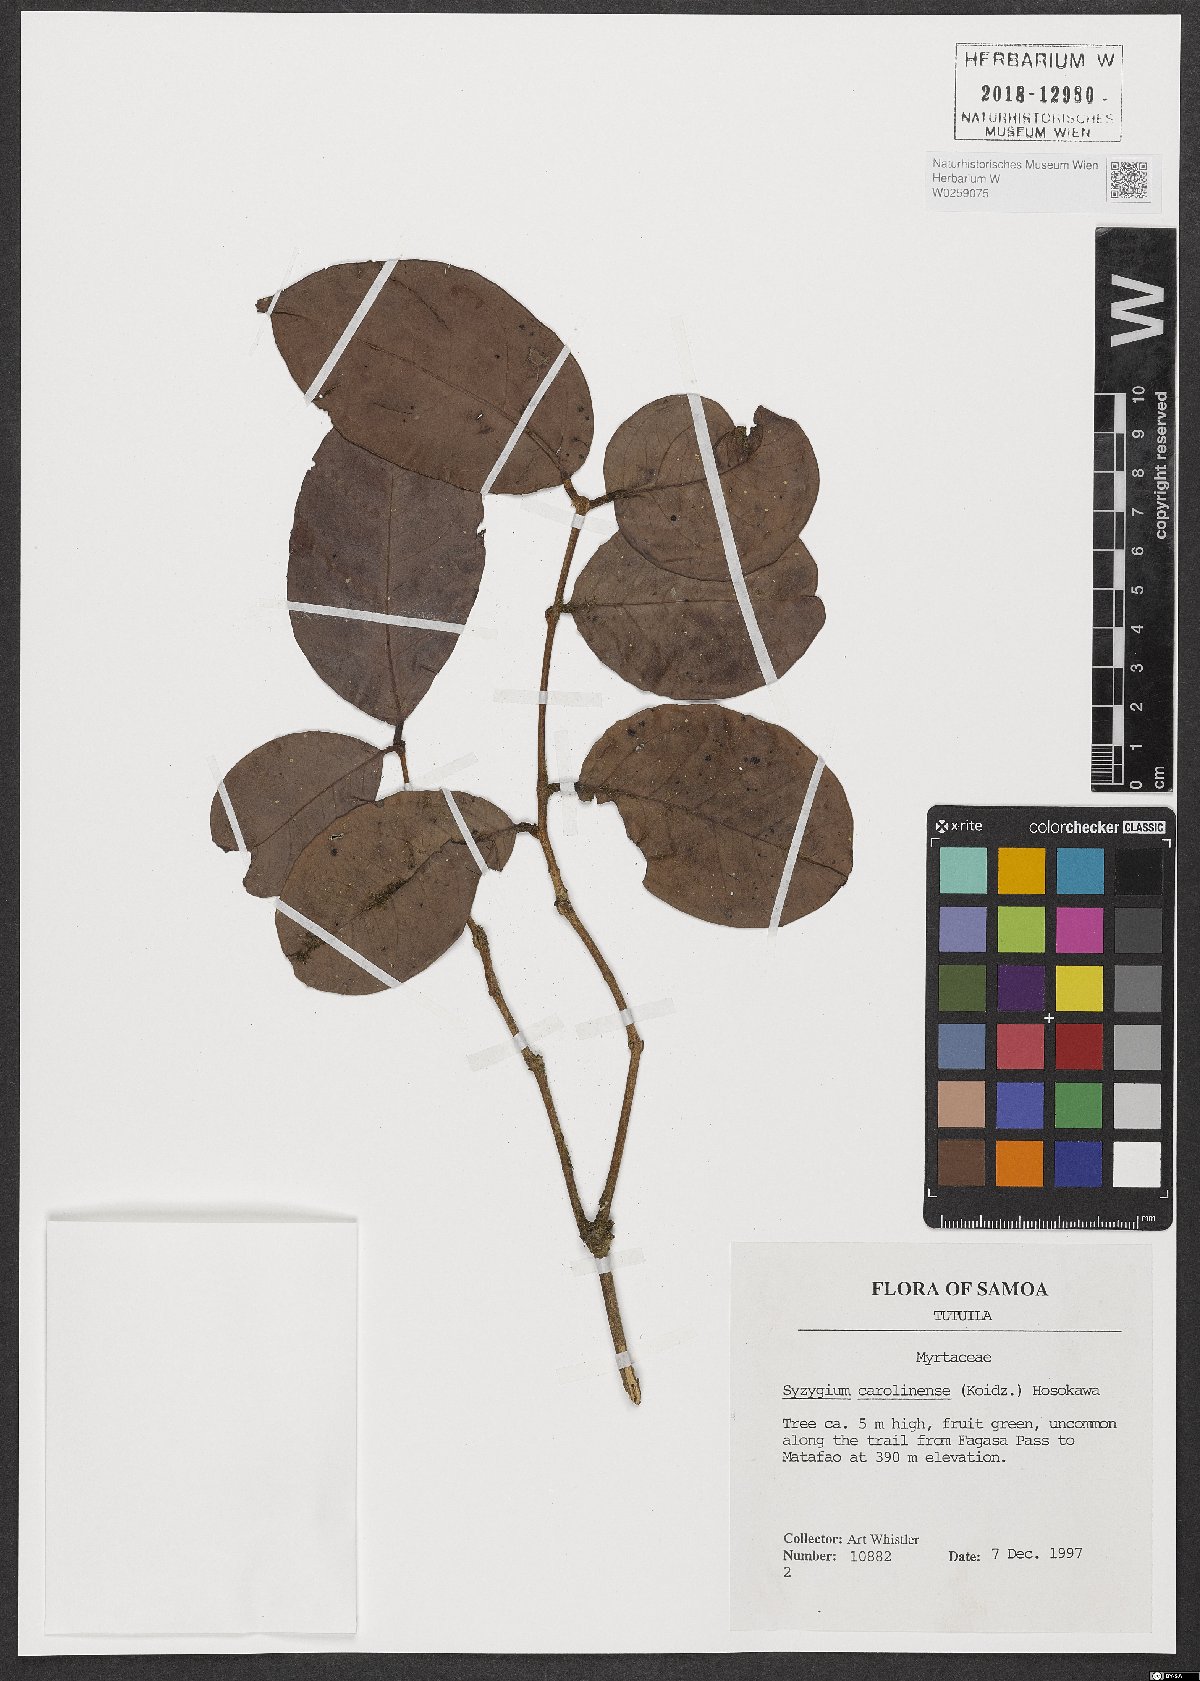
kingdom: Plantae
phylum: Tracheophyta
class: Magnoliopsida
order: Myrtales
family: Myrtaceae
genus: Syzygium
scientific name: Syzygium carolinense
